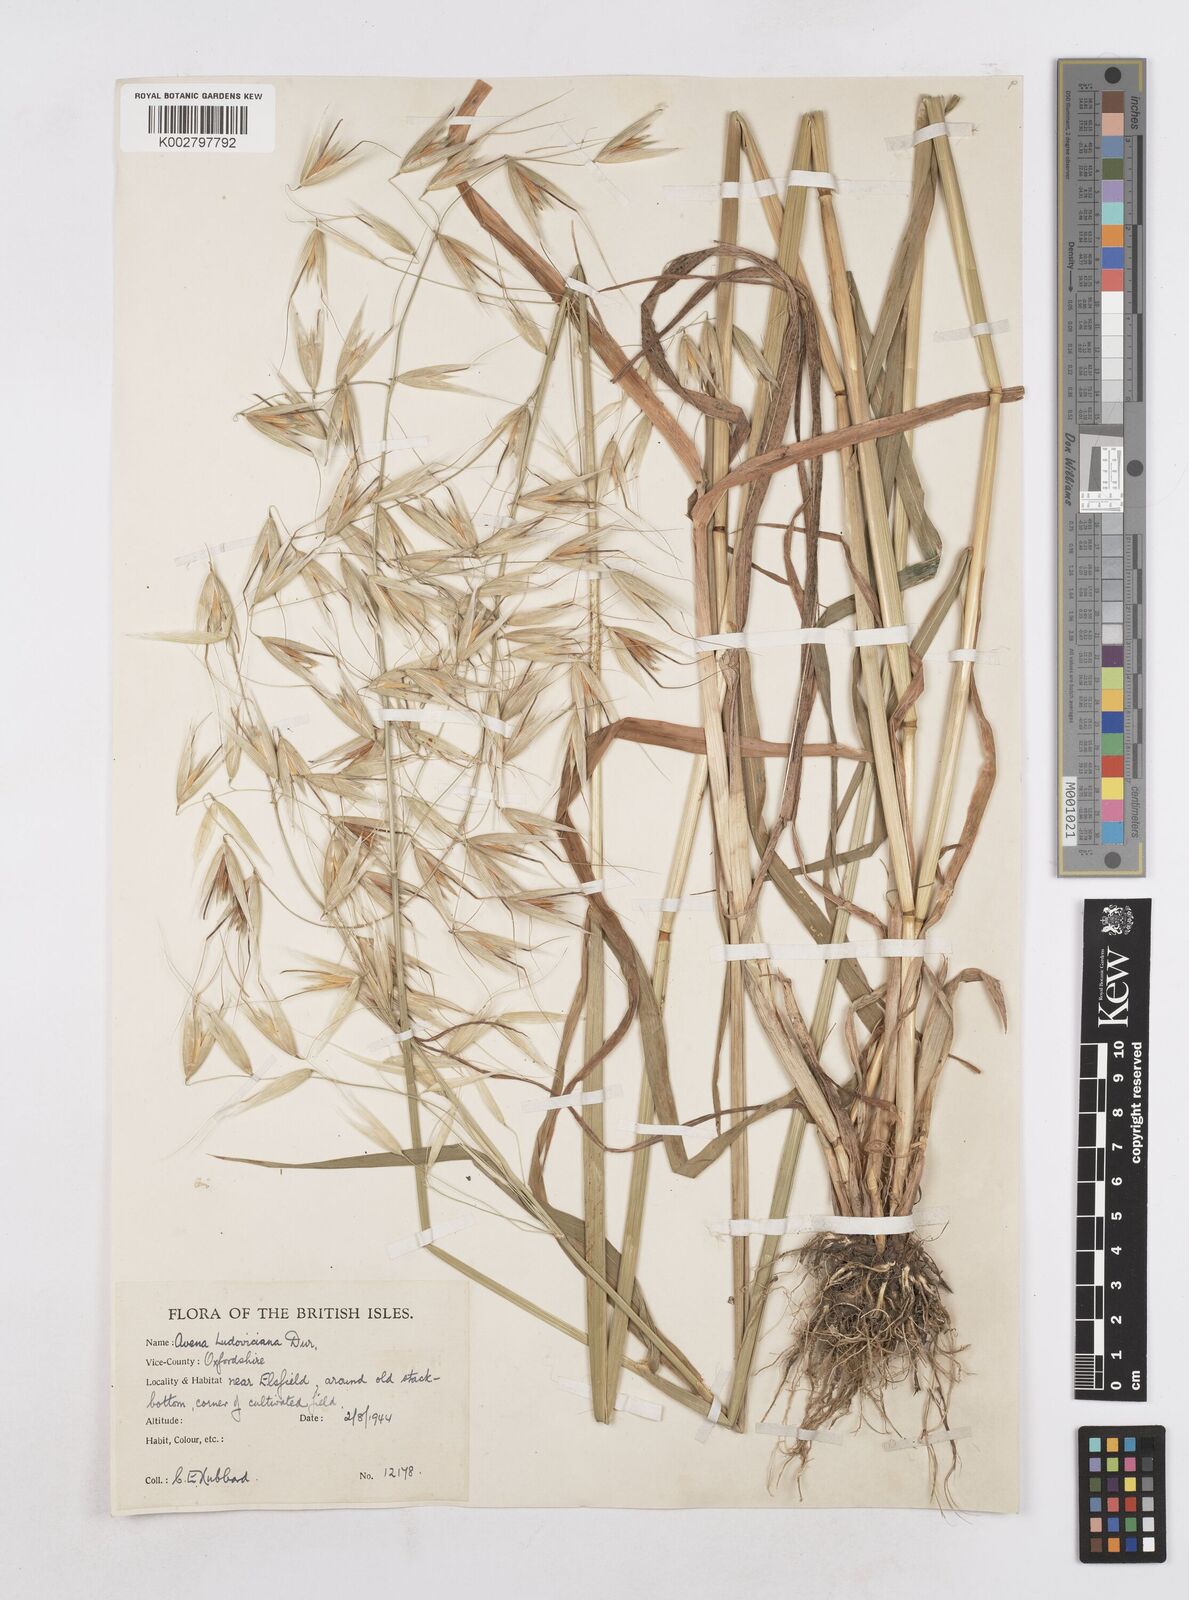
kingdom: Plantae
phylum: Tracheophyta
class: Liliopsida
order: Poales
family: Poaceae
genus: Avena
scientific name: Avena sterilis
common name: Animated oat
